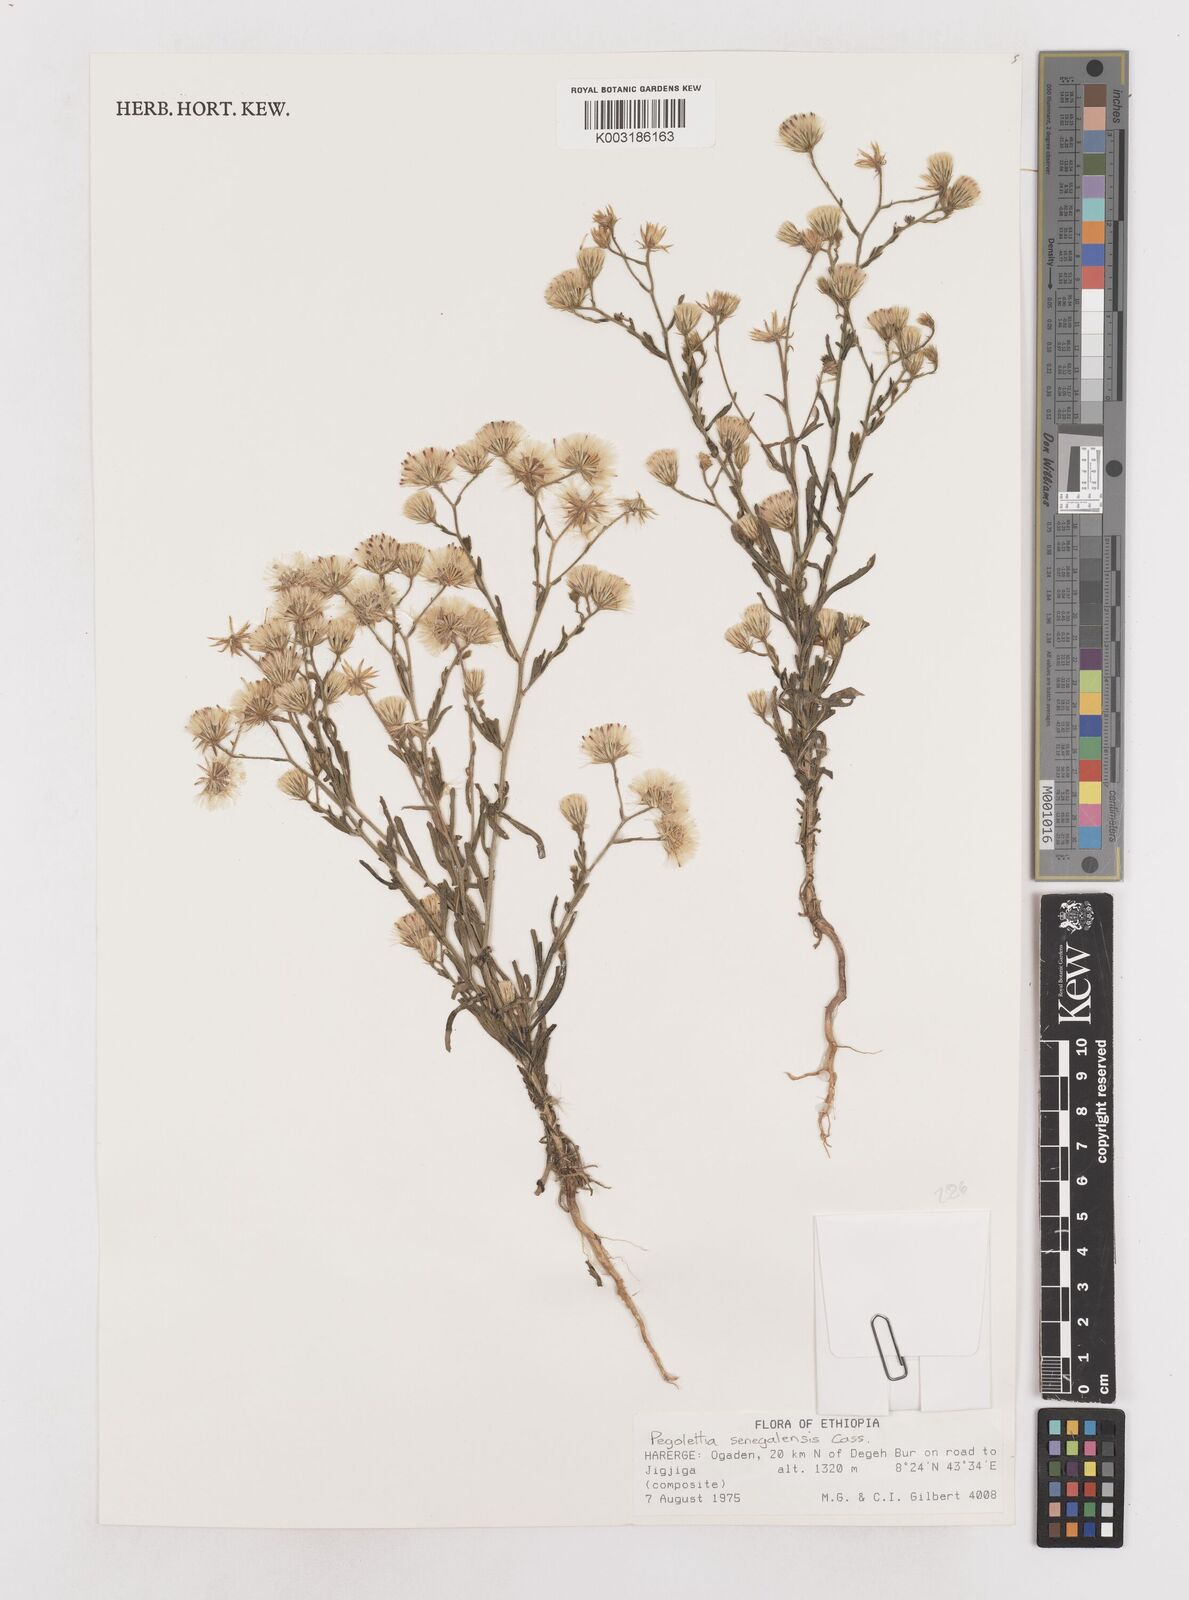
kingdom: Plantae
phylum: Tracheophyta
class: Magnoliopsida
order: Asterales
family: Asteraceae
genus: Pegolettia
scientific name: Pegolettia senegalensis
